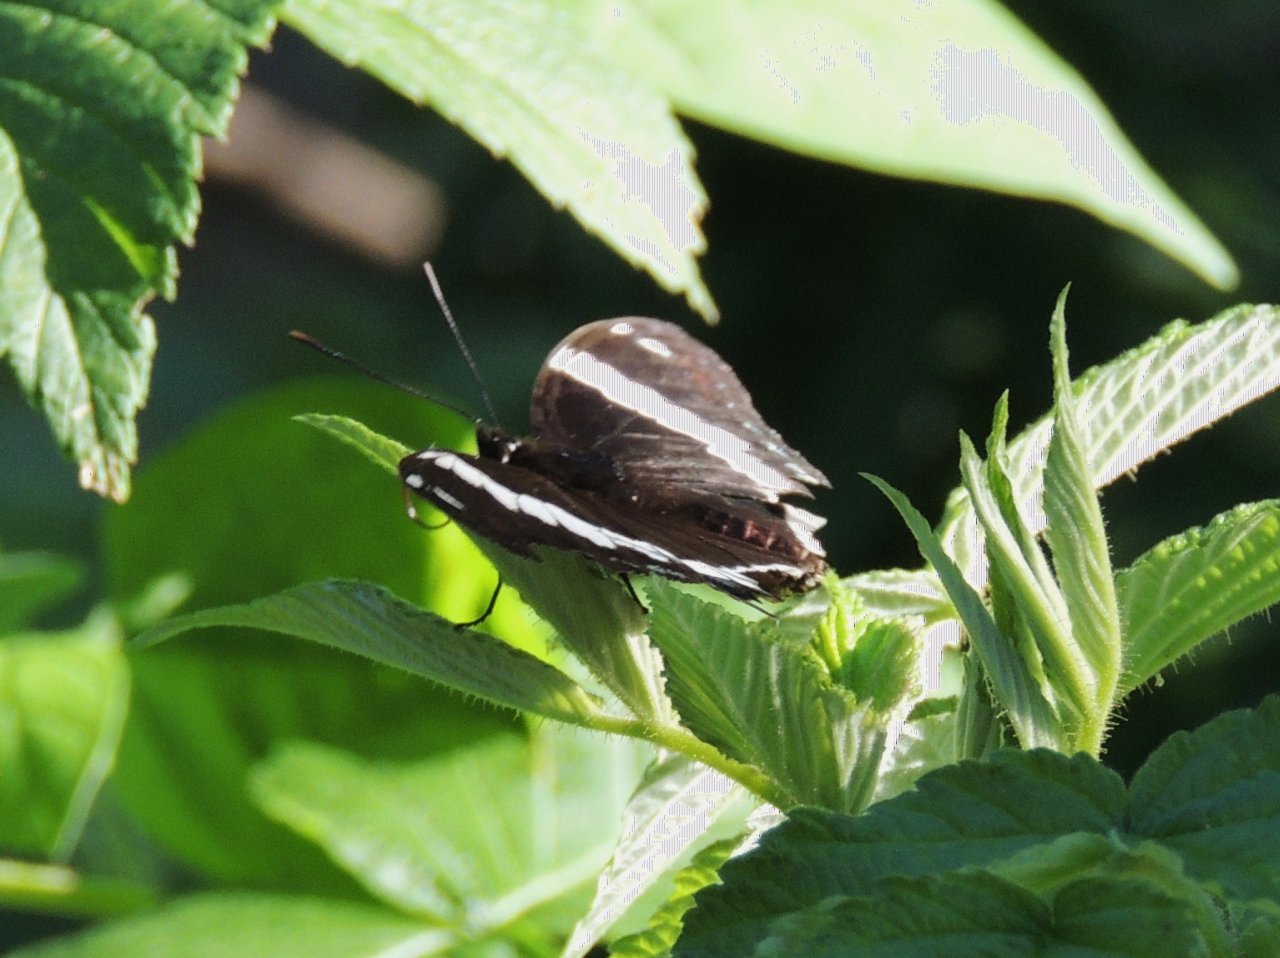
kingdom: Animalia
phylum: Arthropoda
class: Insecta
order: Lepidoptera
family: Nymphalidae
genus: Limenitis
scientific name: Limenitis arthemis
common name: Red-spotted Admiral
